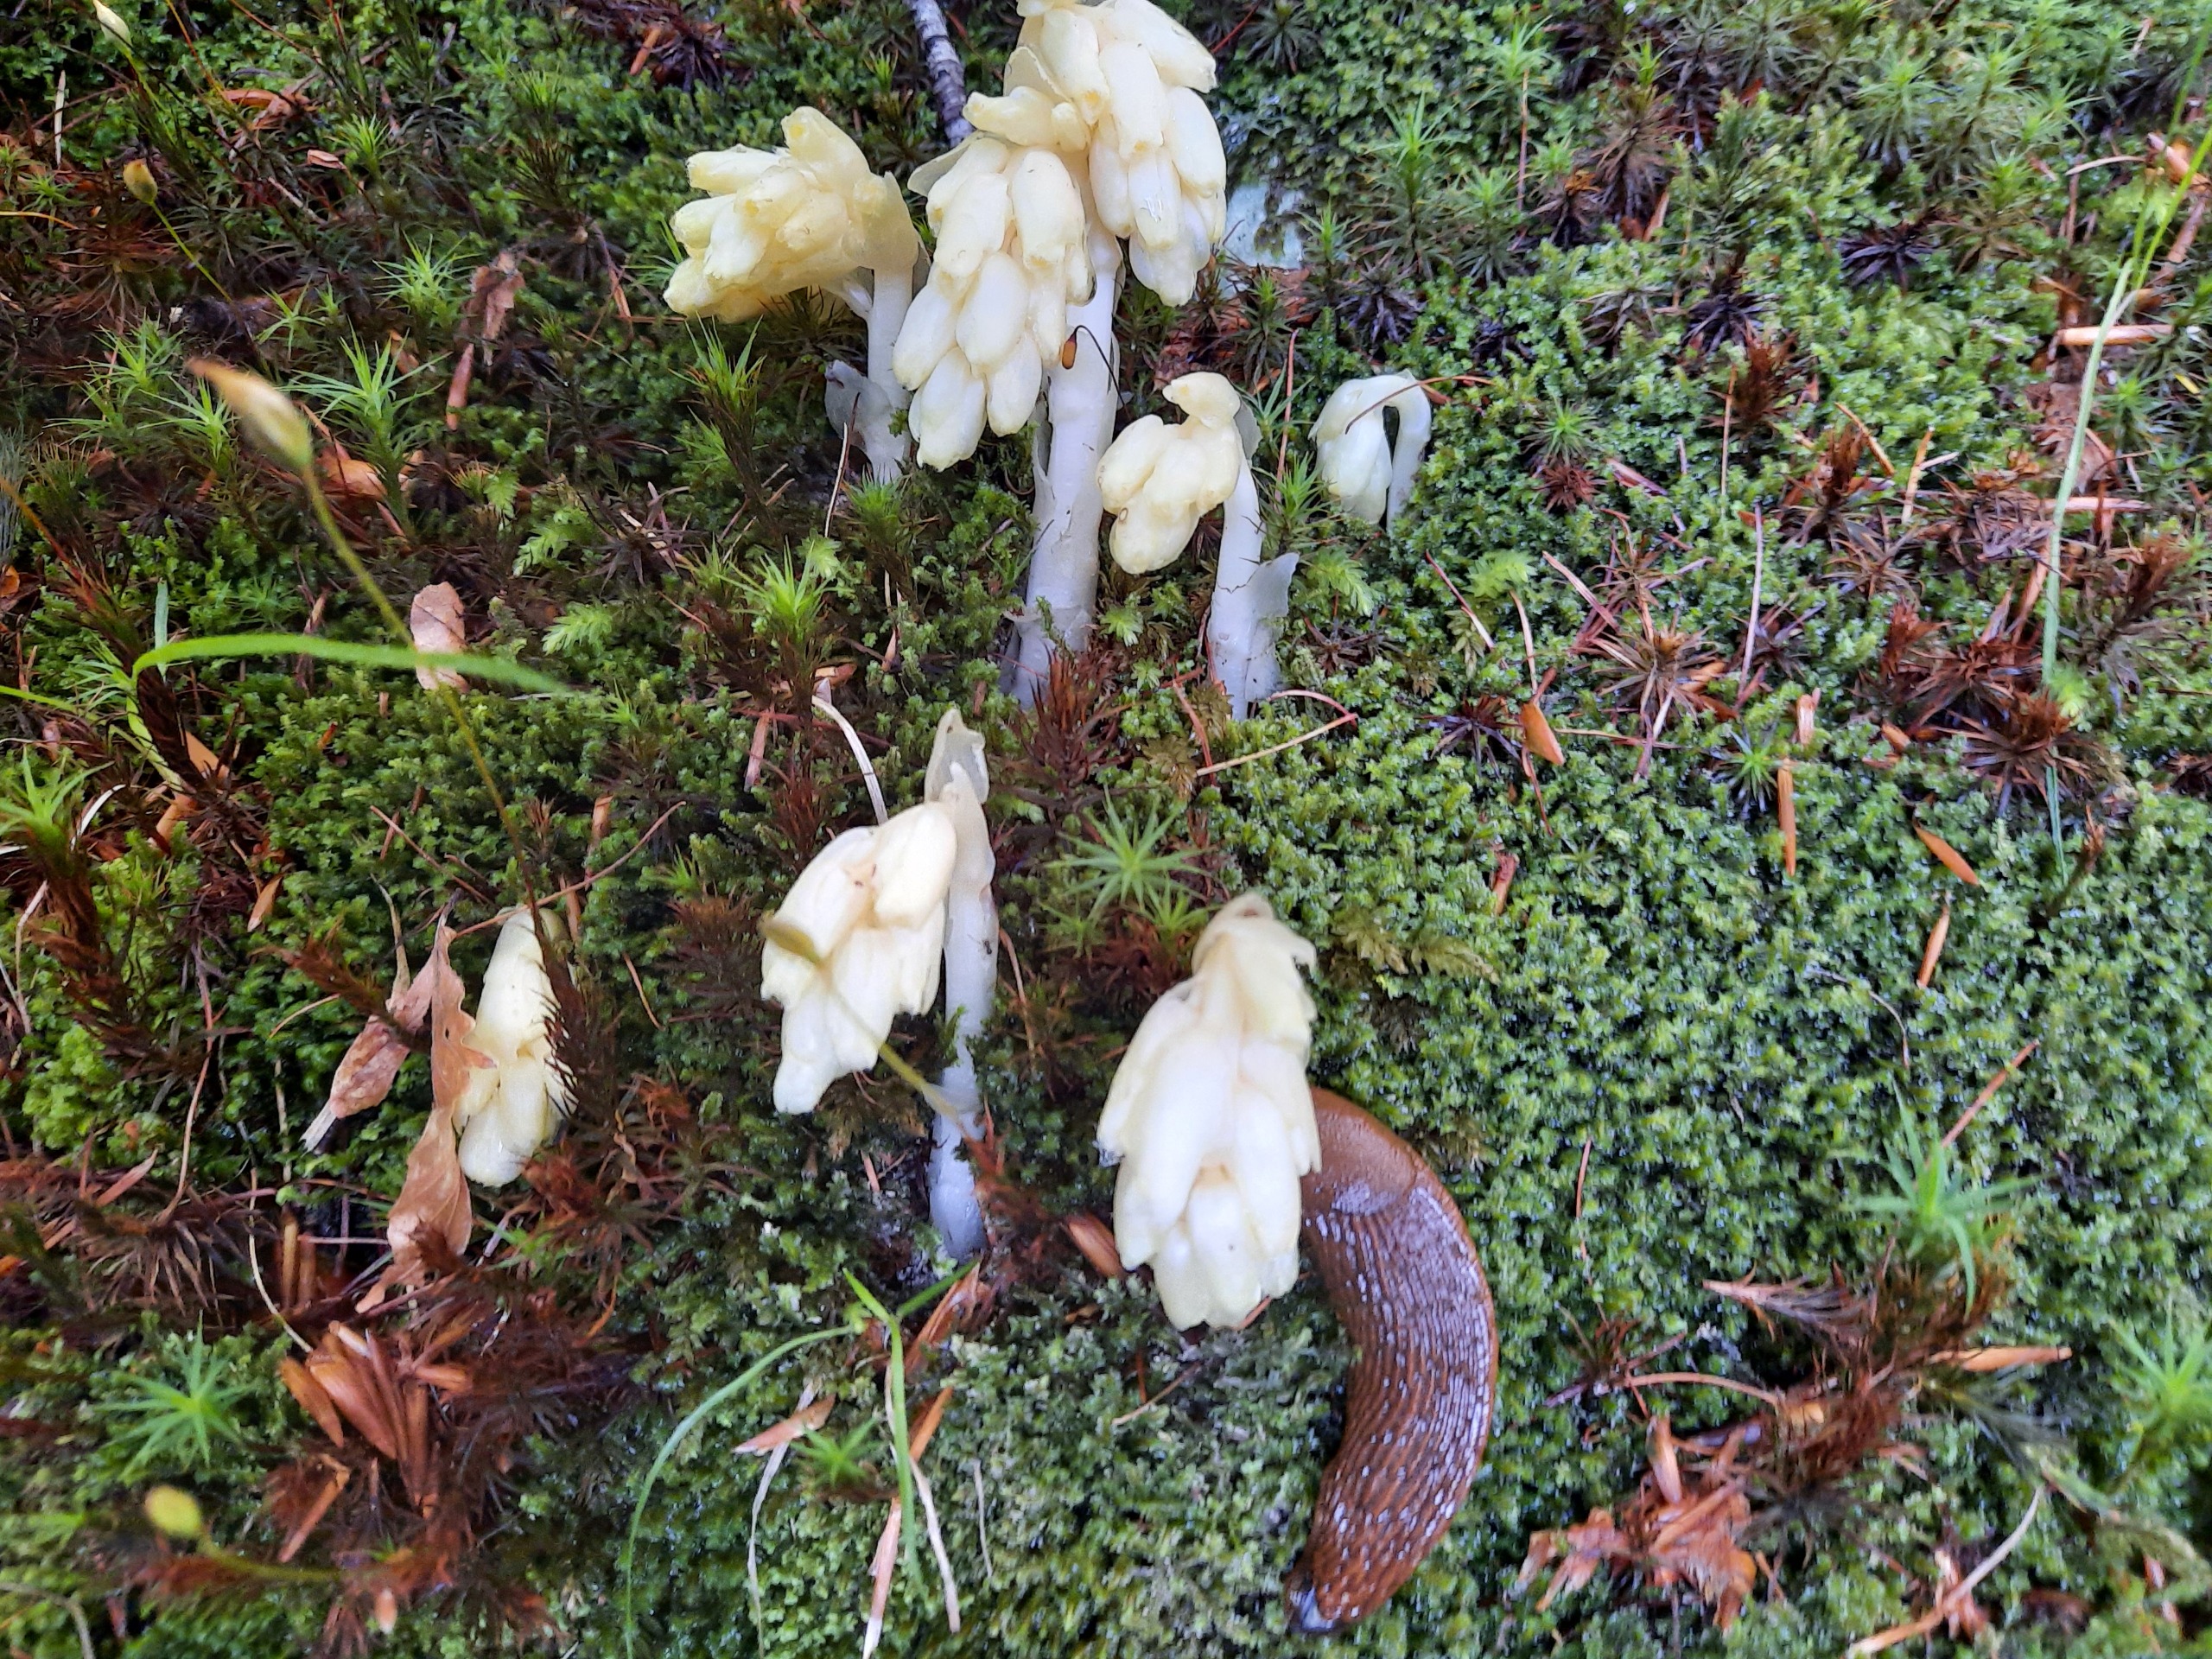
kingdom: Plantae
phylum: Tracheophyta
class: Magnoliopsida
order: Ericales
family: Ericaceae
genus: Hypopitys
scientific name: Hypopitys monotropa
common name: Snylterod
